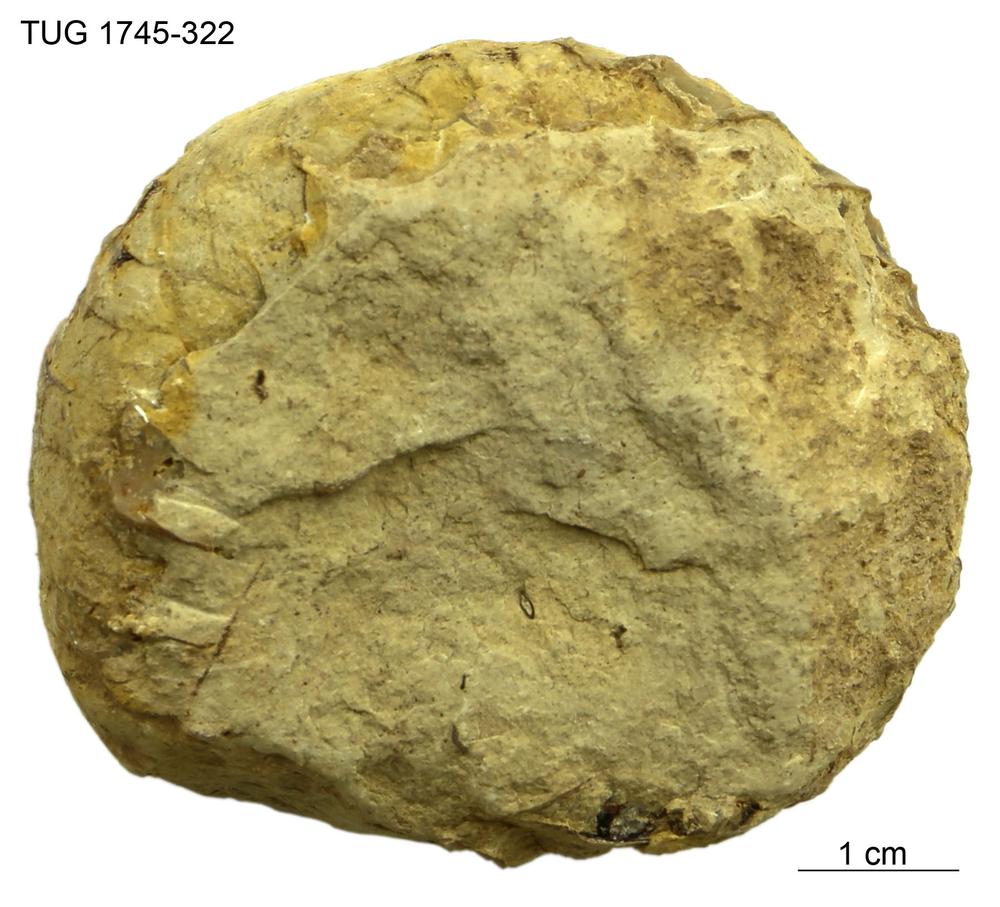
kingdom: Animalia
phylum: Mollusca
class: Cephalopoda
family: Lituitidae
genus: Lituites
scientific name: Lituites antiquissimus
